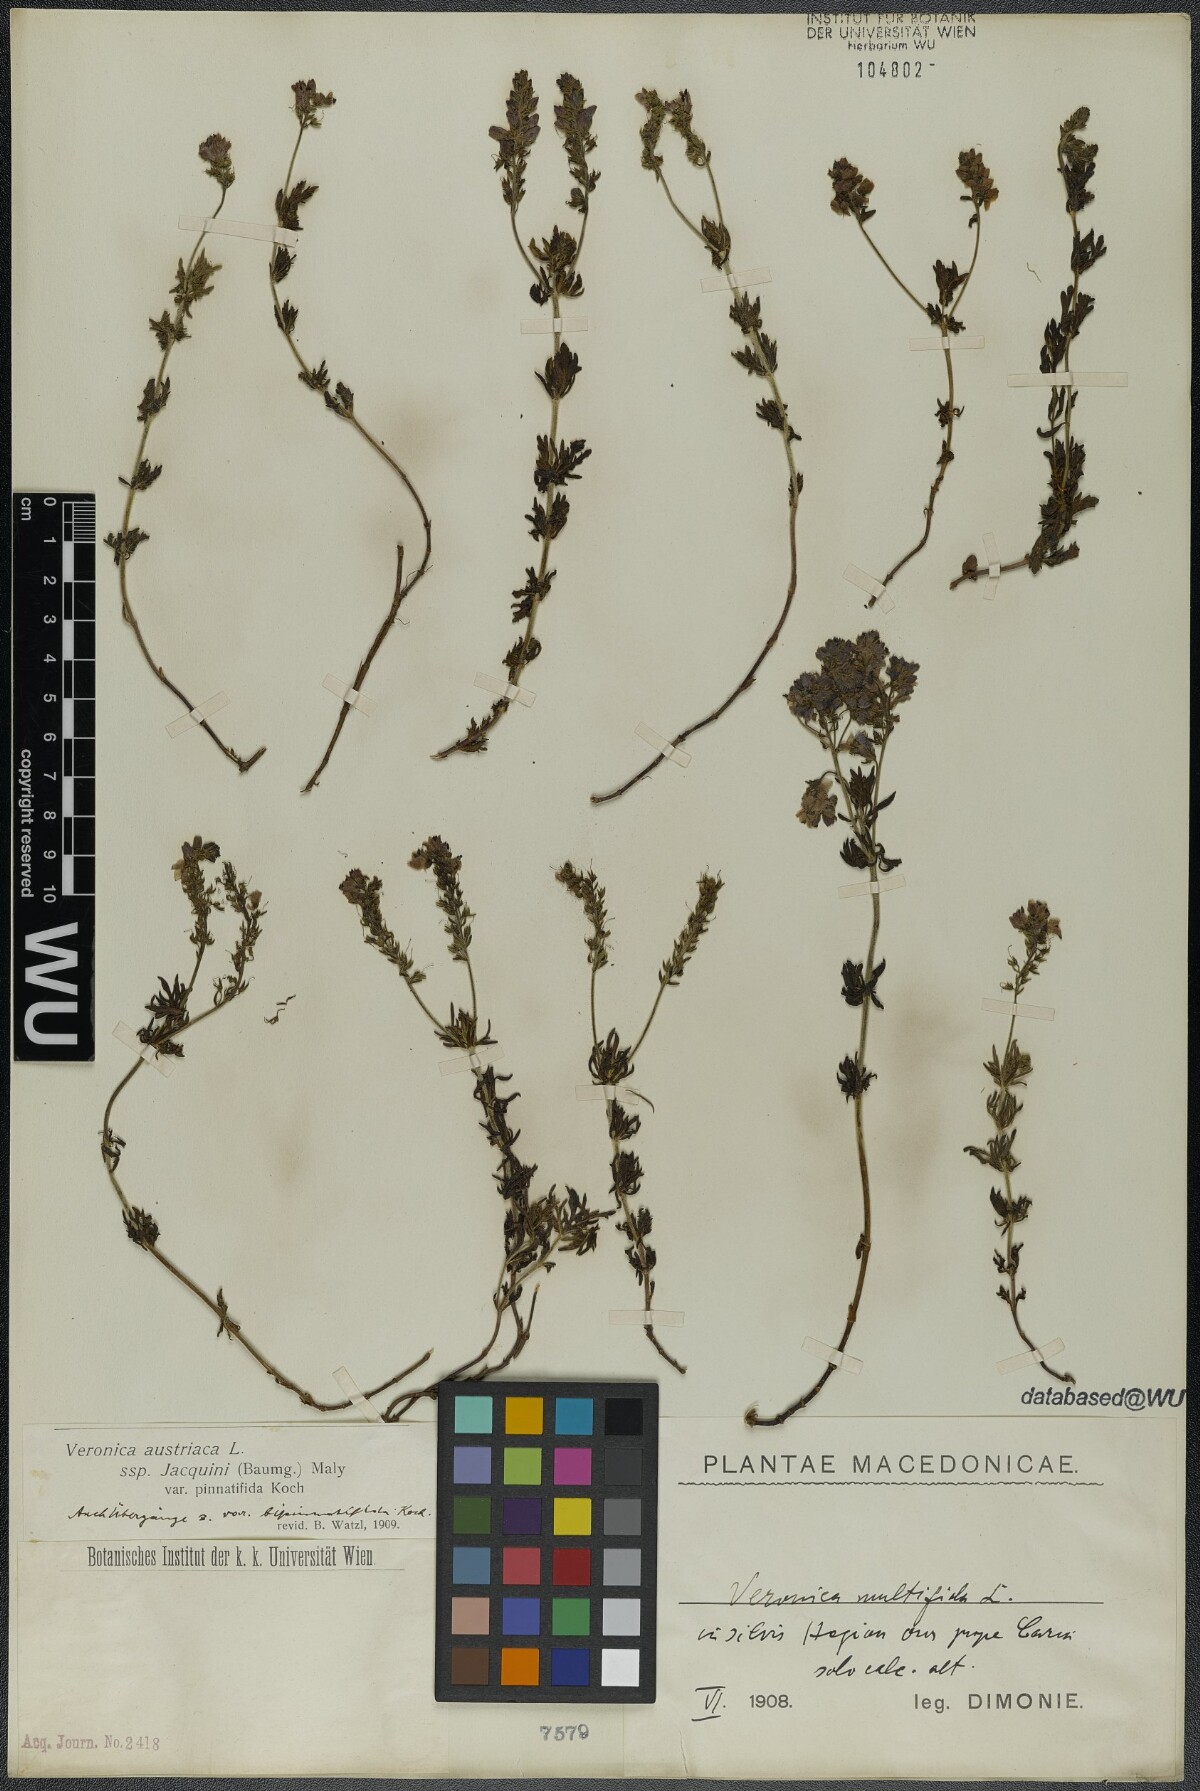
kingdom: Plantae
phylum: Tracheophyta
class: Magnoliopsida
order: Lamiales
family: Plantaginaceae
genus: Veronica
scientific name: Veronica austriaca
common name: Large speedwell
